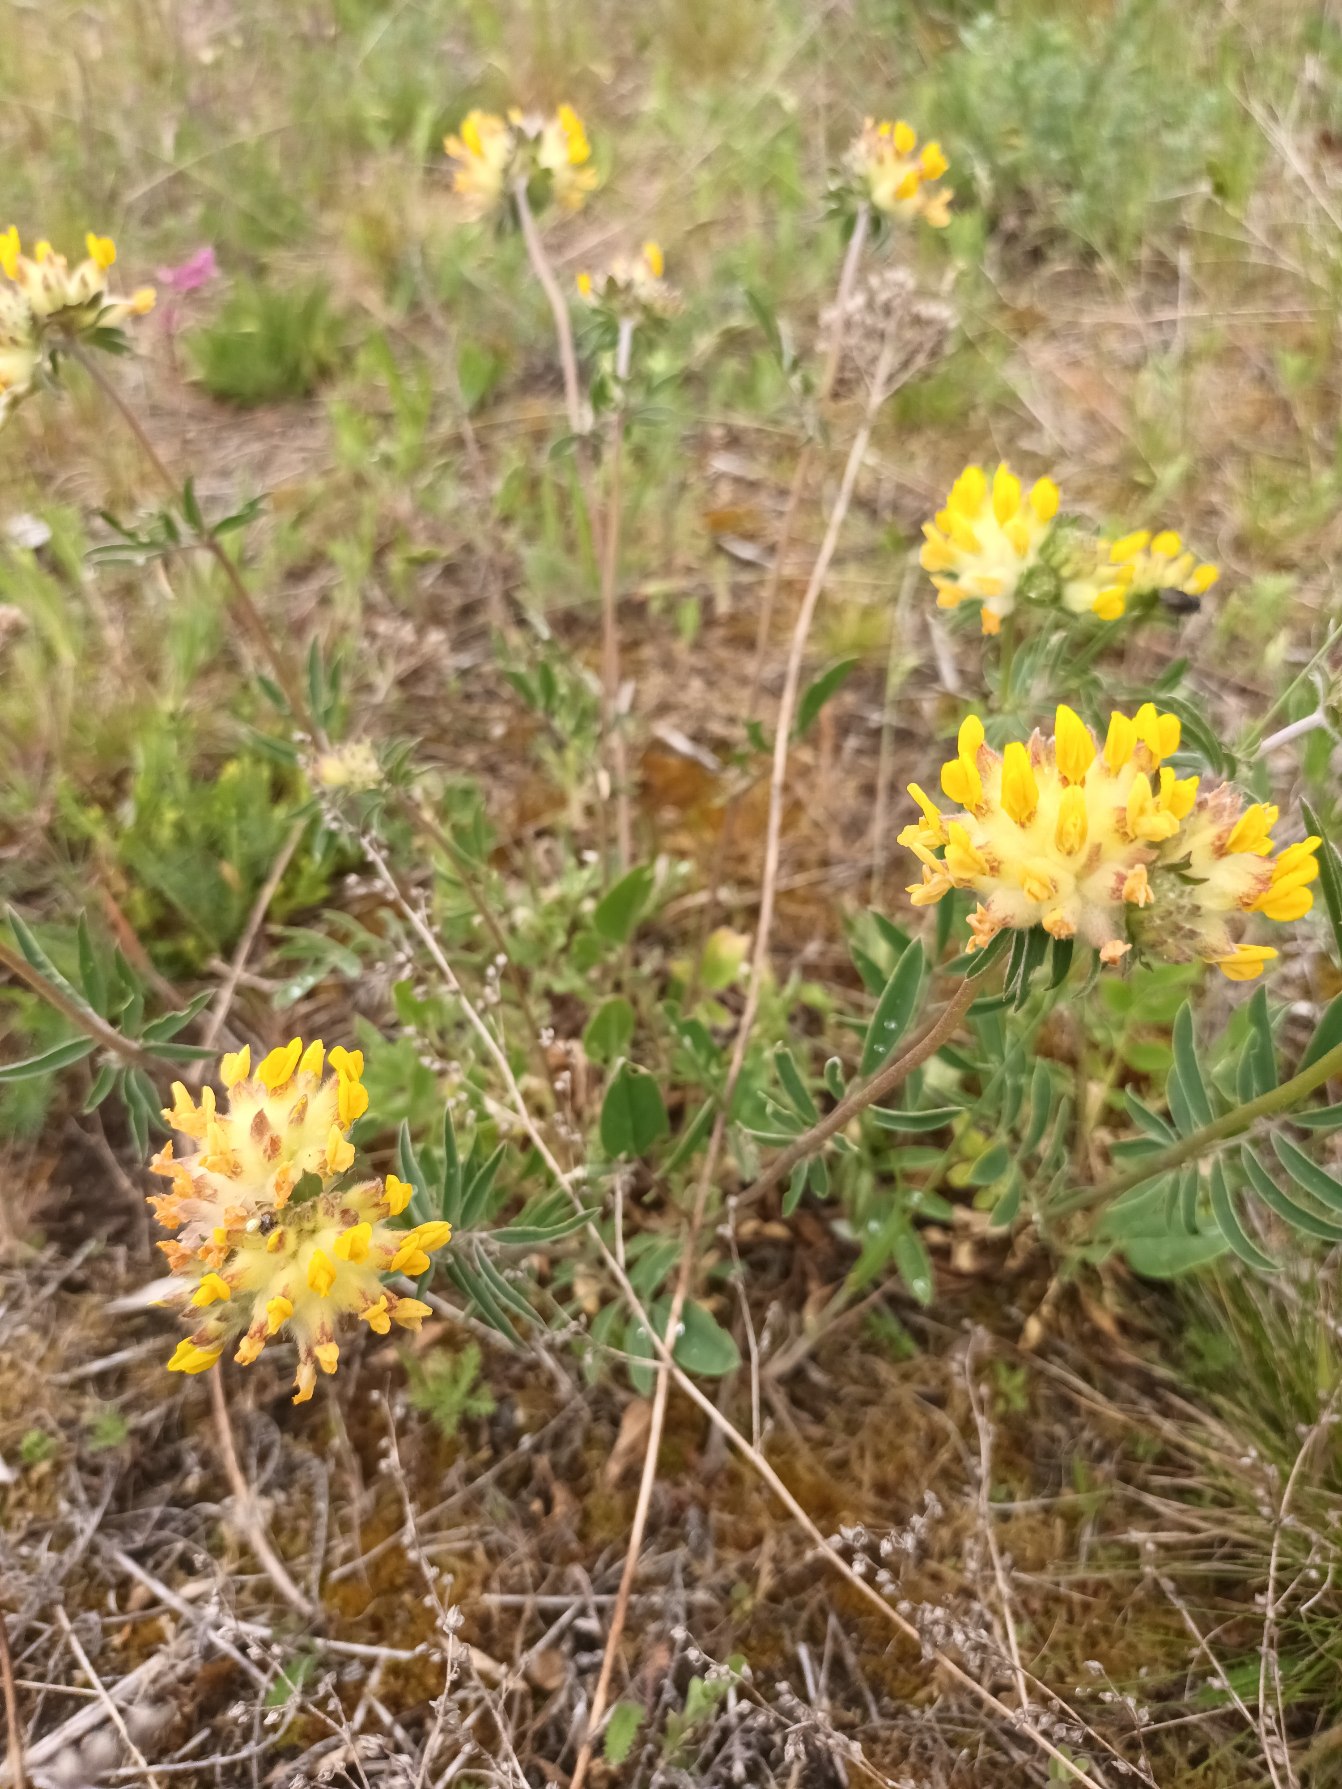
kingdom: Plantae
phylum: Tracheophyta
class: Magnoliopsida
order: Fabales
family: Fabaceae
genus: Anthyllis
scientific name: Anthyllis vulneraria
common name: Rundbælg
